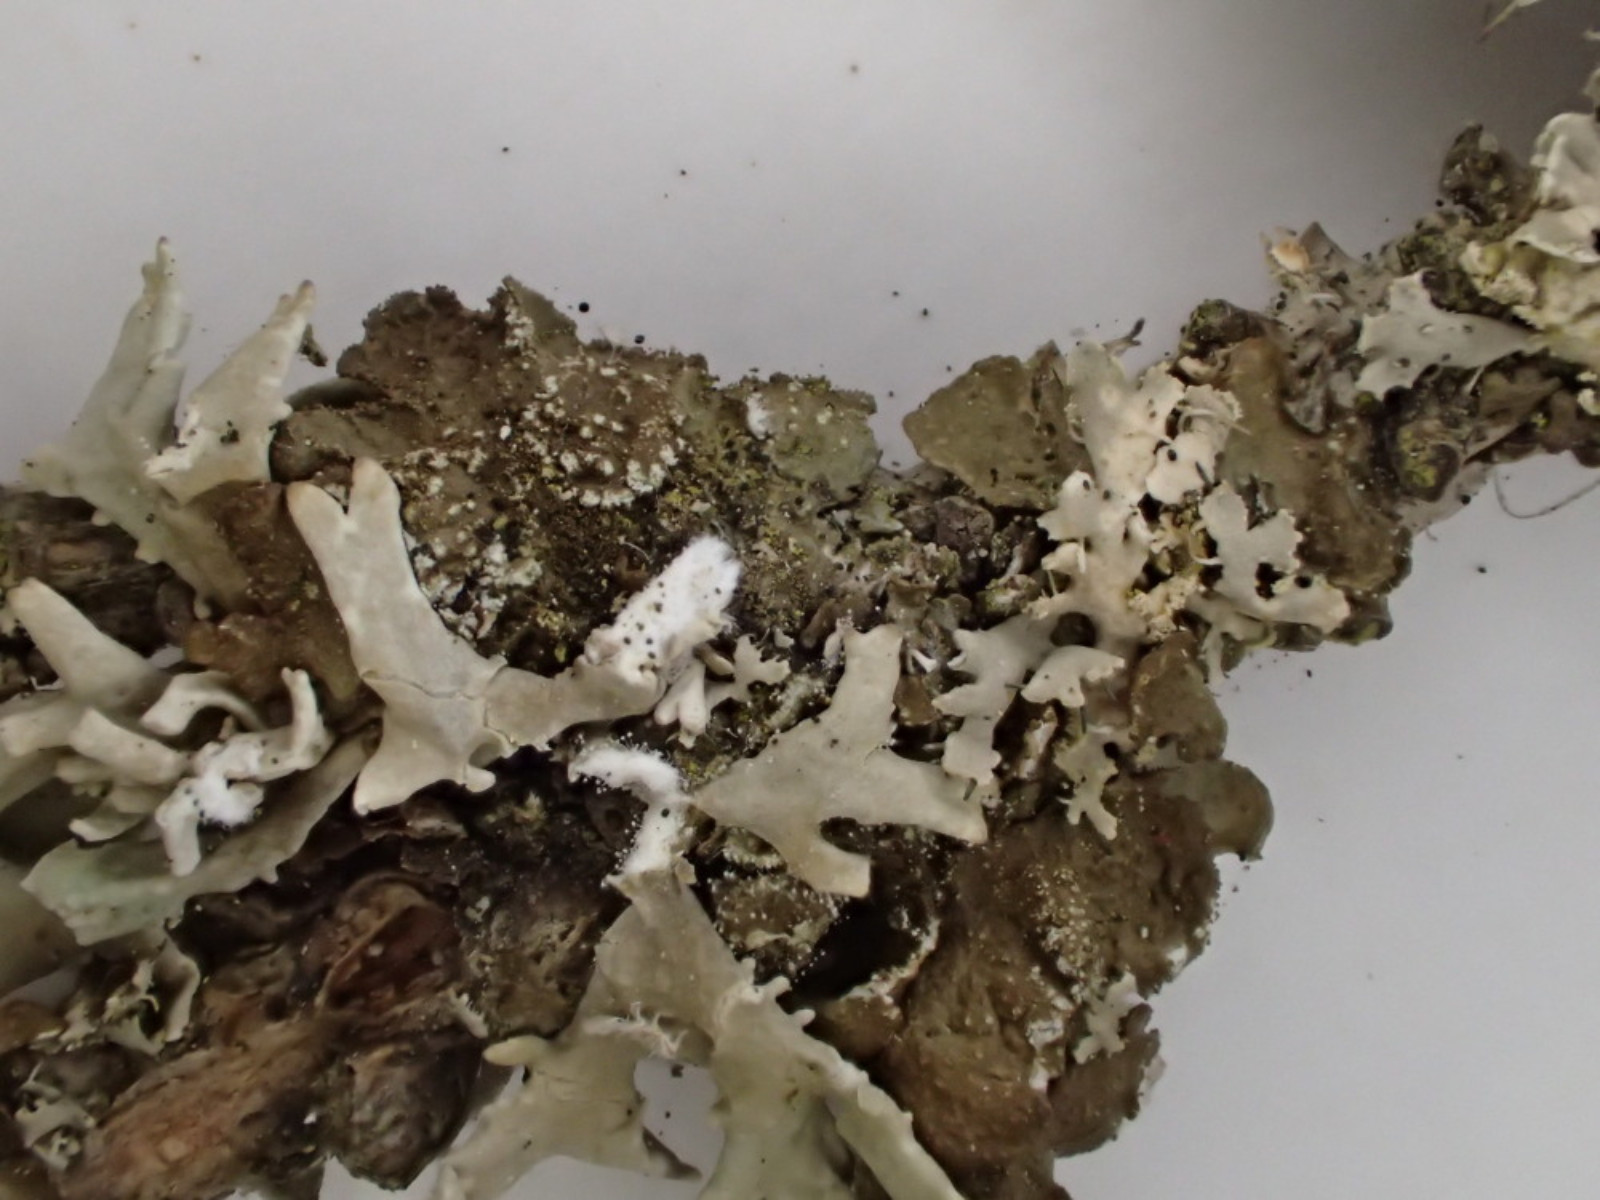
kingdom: Fungi
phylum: Ascomycota
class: Lecanoromycetes
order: Lecanorales
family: Parmeliaceae
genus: Melanelixia
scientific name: Melanelixia subaurifera
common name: guldpudret skållav
